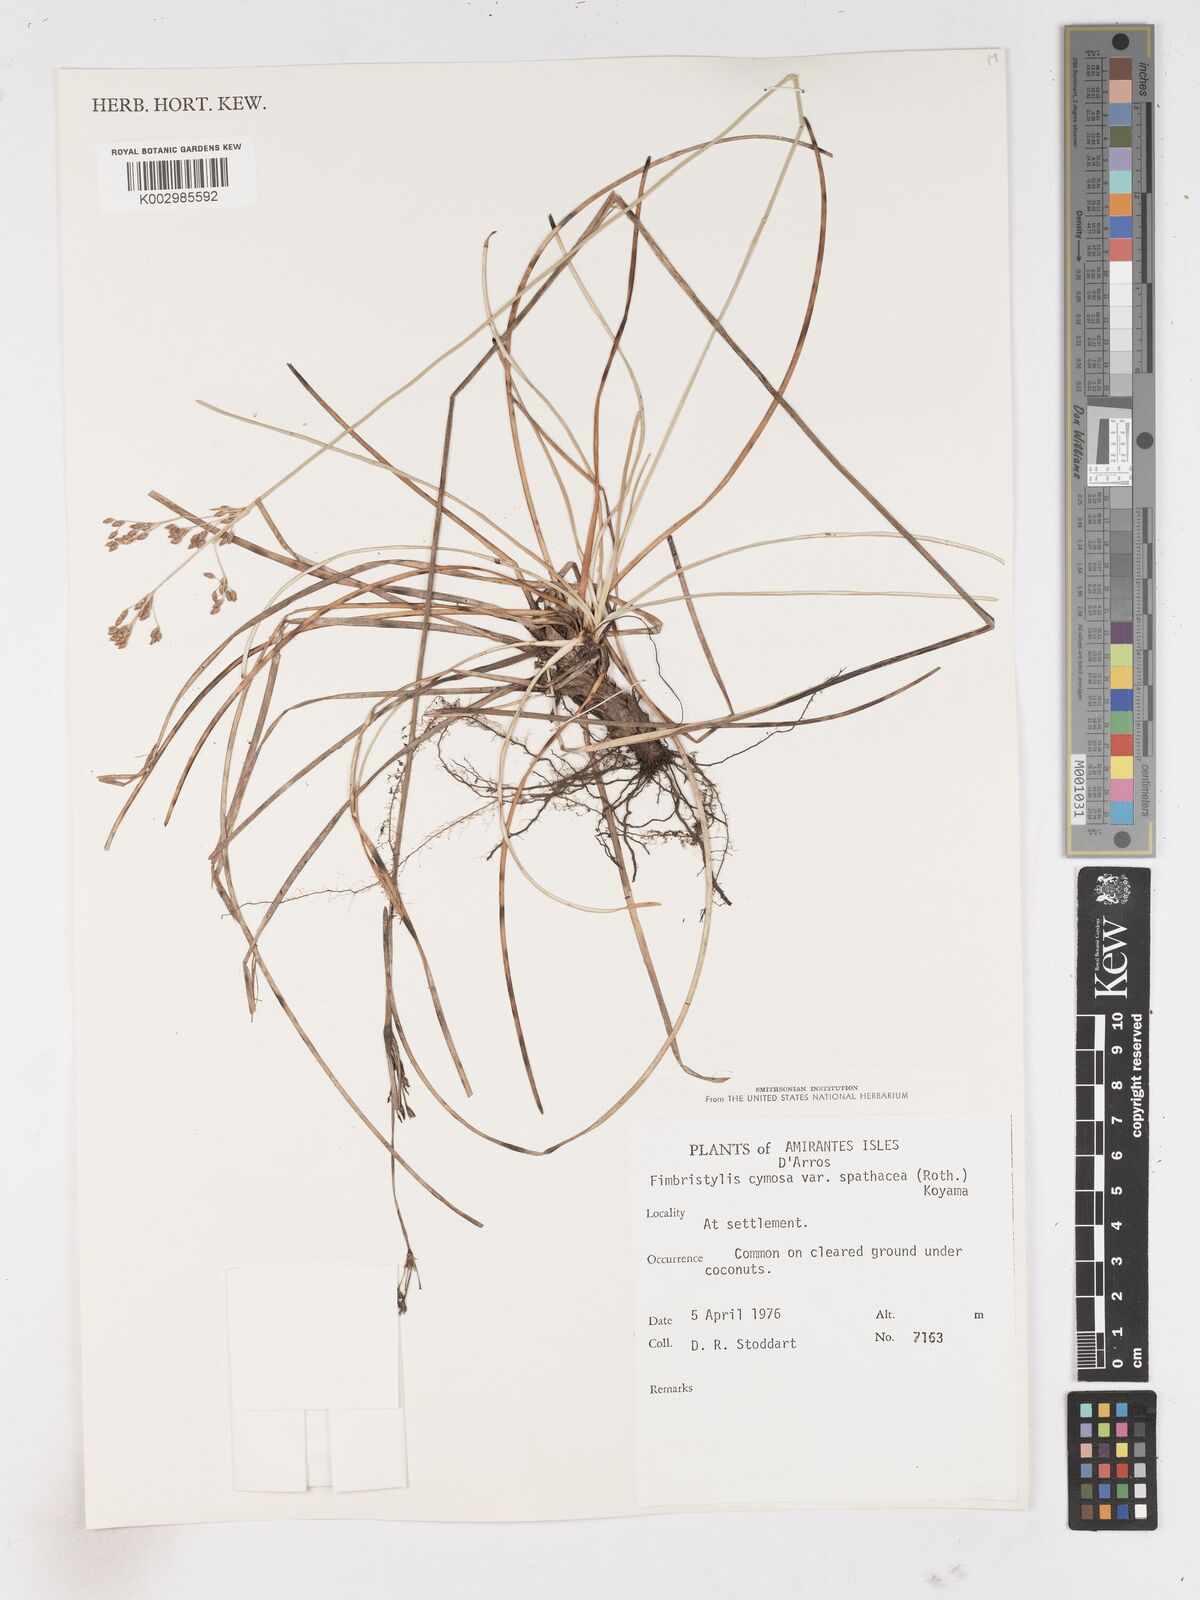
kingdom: Plantae
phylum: Tracheophyta
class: Liliopsida
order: Poales
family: Cyperaceae
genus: Fimbristylis
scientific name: Fimbristylis cymosa
